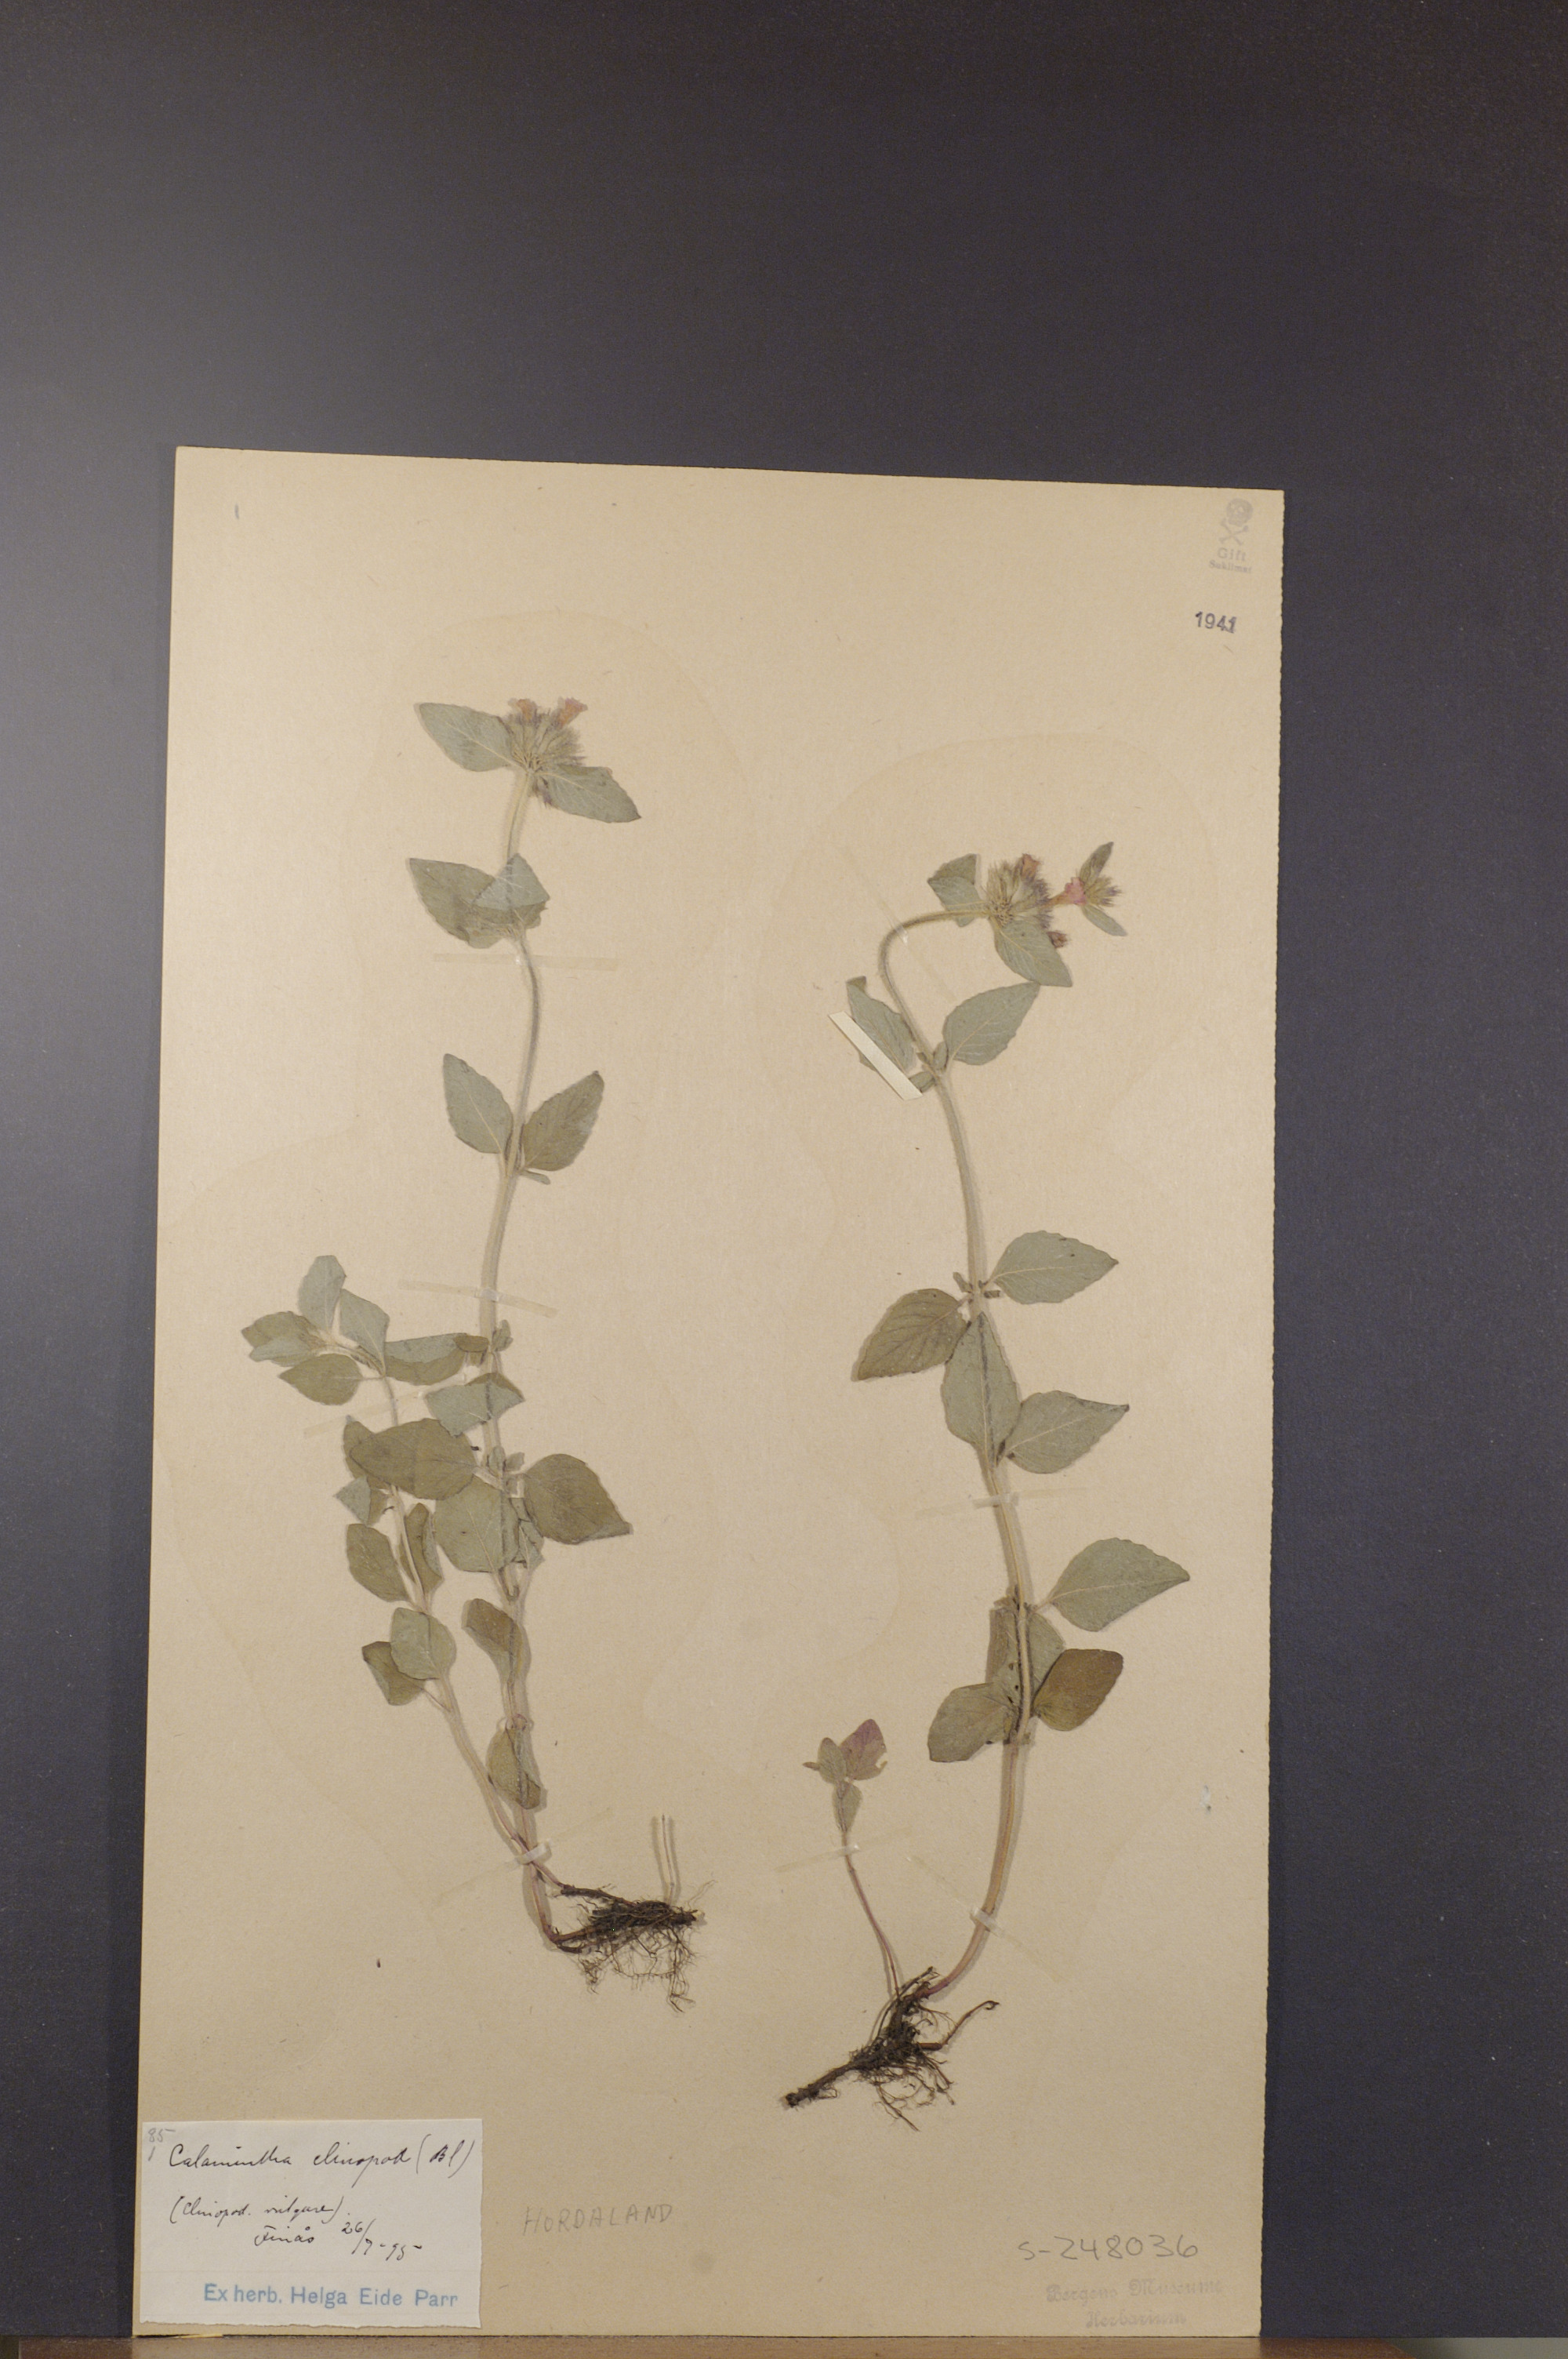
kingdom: Plantae
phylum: Tracheophyta
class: Magnoliopsida
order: Lamiales
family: Lamiaceae
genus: Clinopodium
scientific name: Clinopodium vulgare
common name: Wild basil
